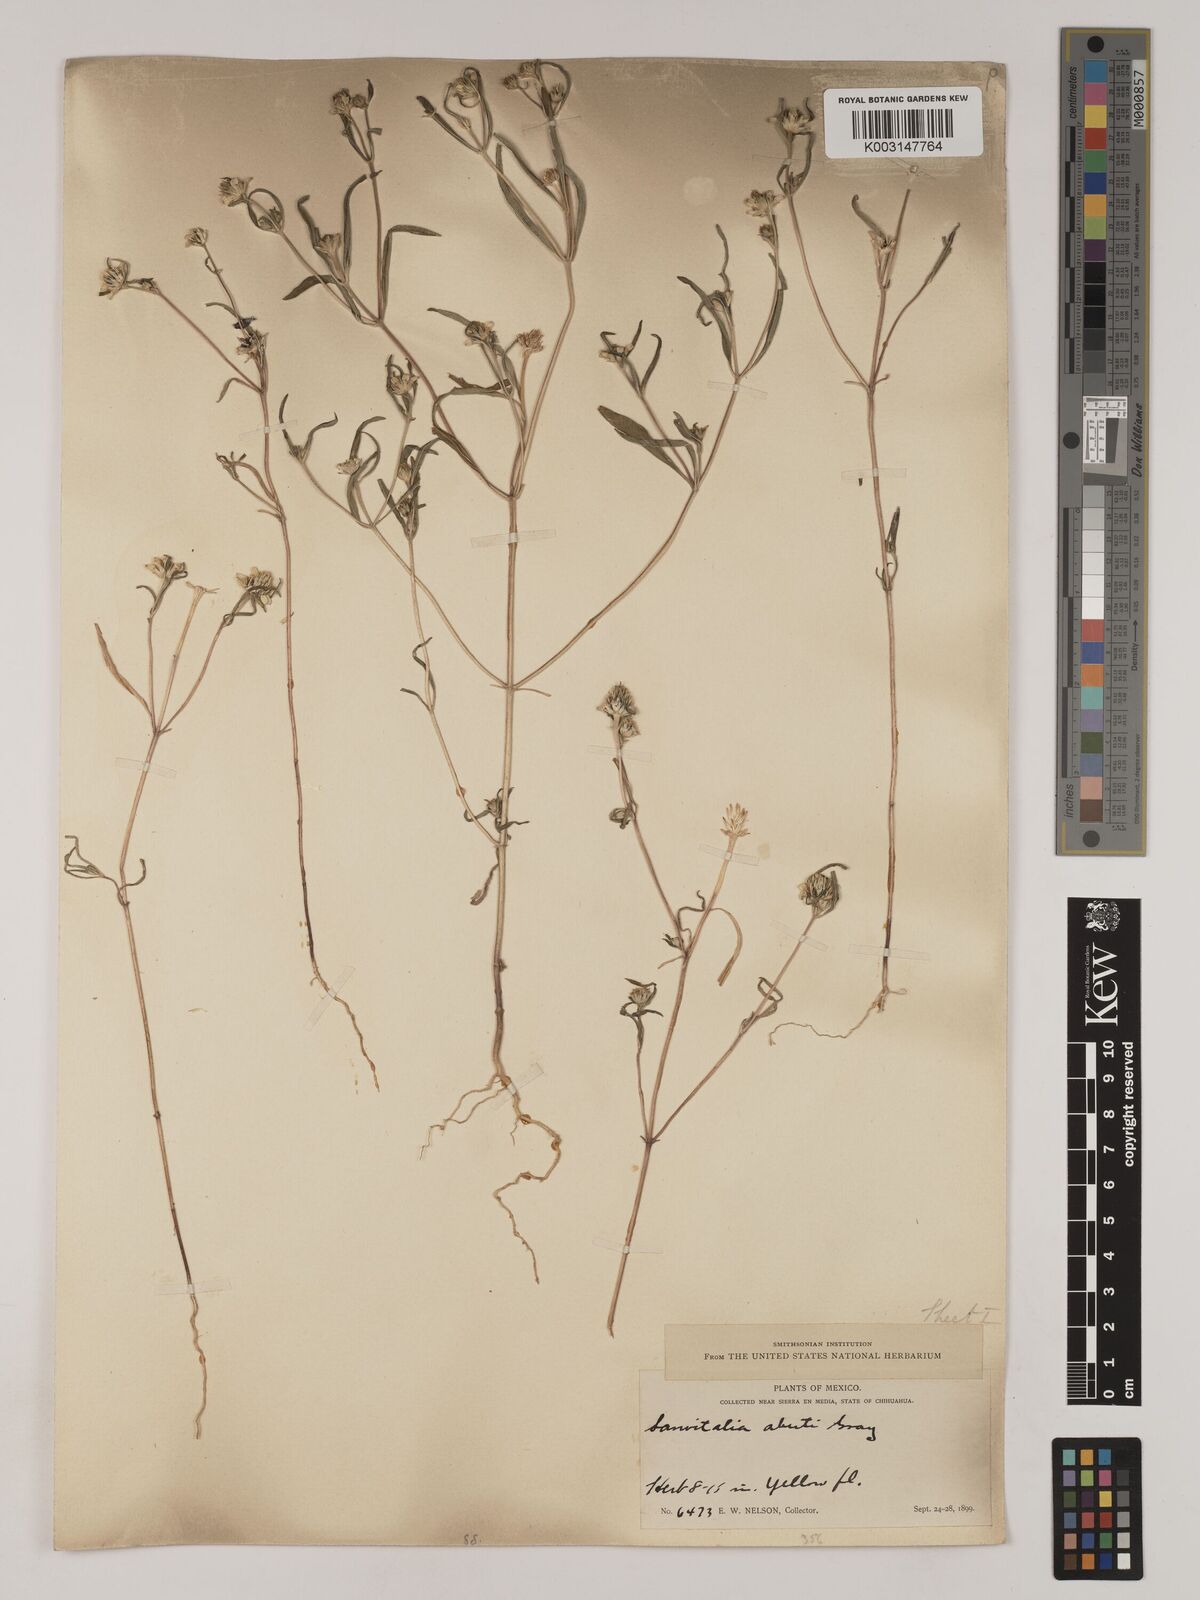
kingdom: Plantae
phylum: Tracheophyta
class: Magnoliopsida
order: Asterales
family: Asteraceae
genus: Sanvitalia
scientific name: Sanvitalia abertii
